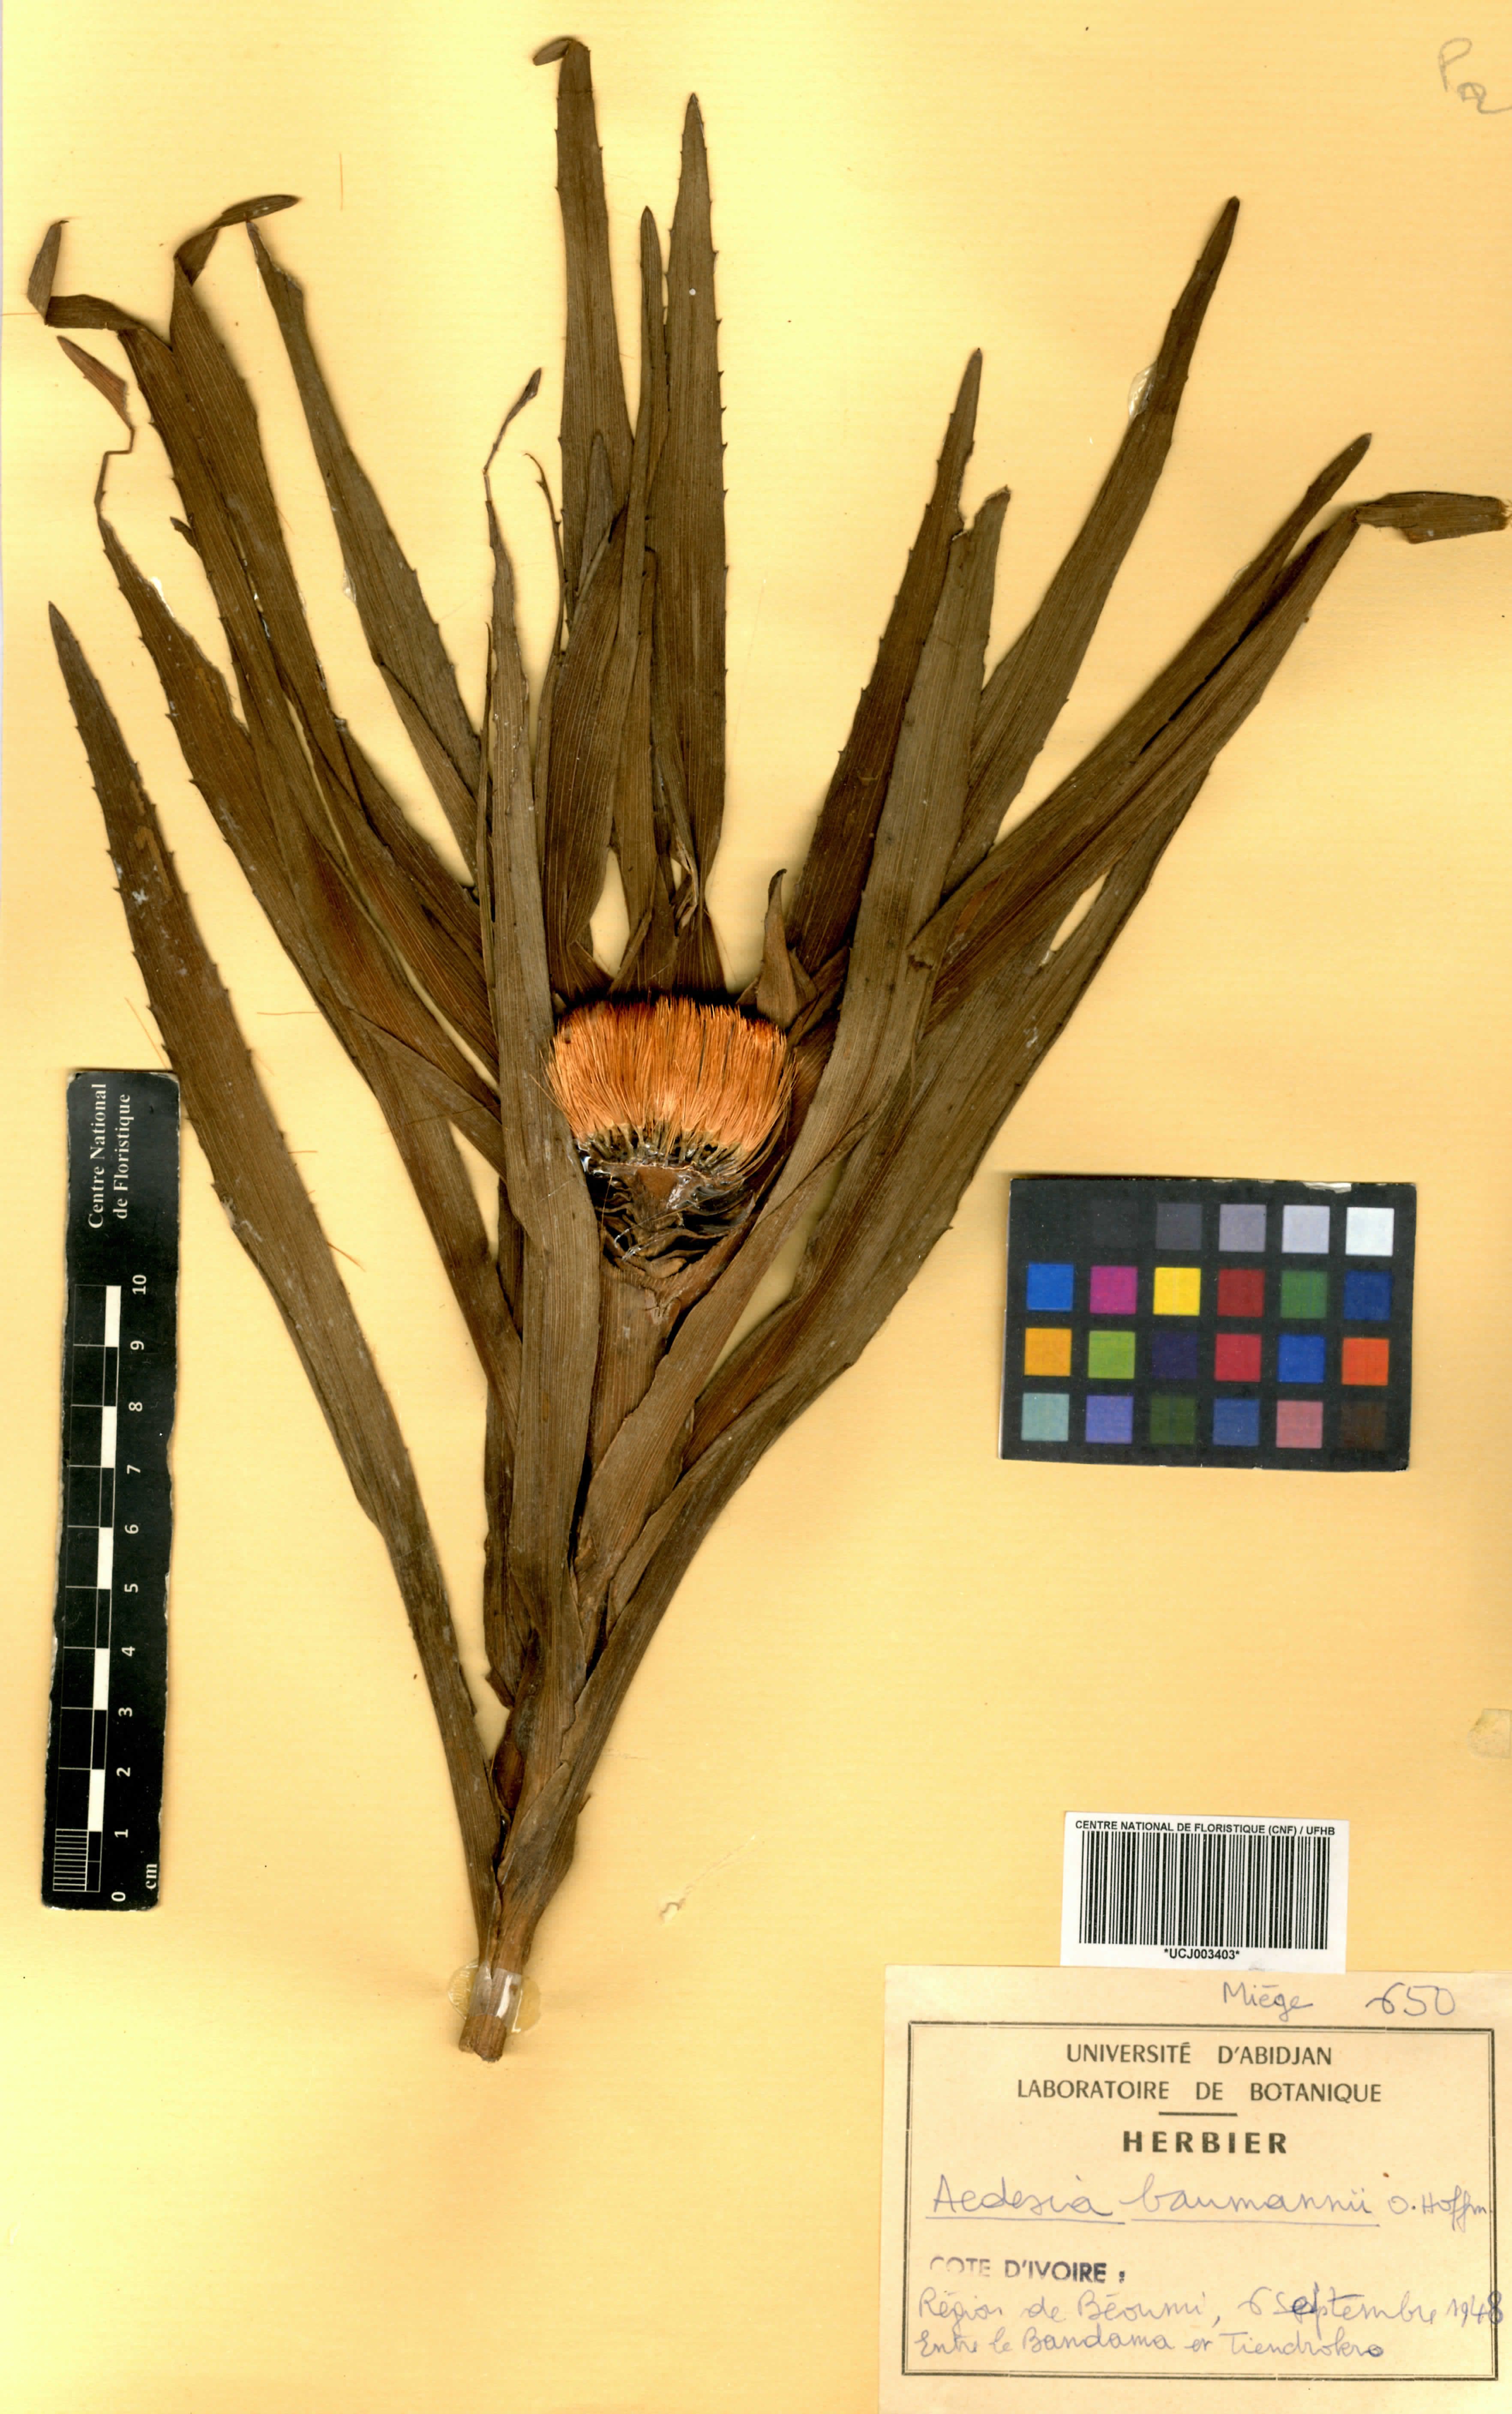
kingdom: Plantae
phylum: Tracheophyta
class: Magnoliopsida
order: Asterales
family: Asteraceae
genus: Aedesia
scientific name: Aedesia glabra
